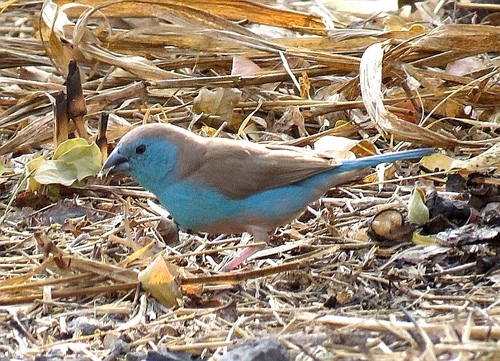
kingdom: Animalia
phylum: Chordata
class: Aves
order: Passeriformes
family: Estrildidae
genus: Uraeginthus
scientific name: Uraeginthus angolensis
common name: Blue waxbill
